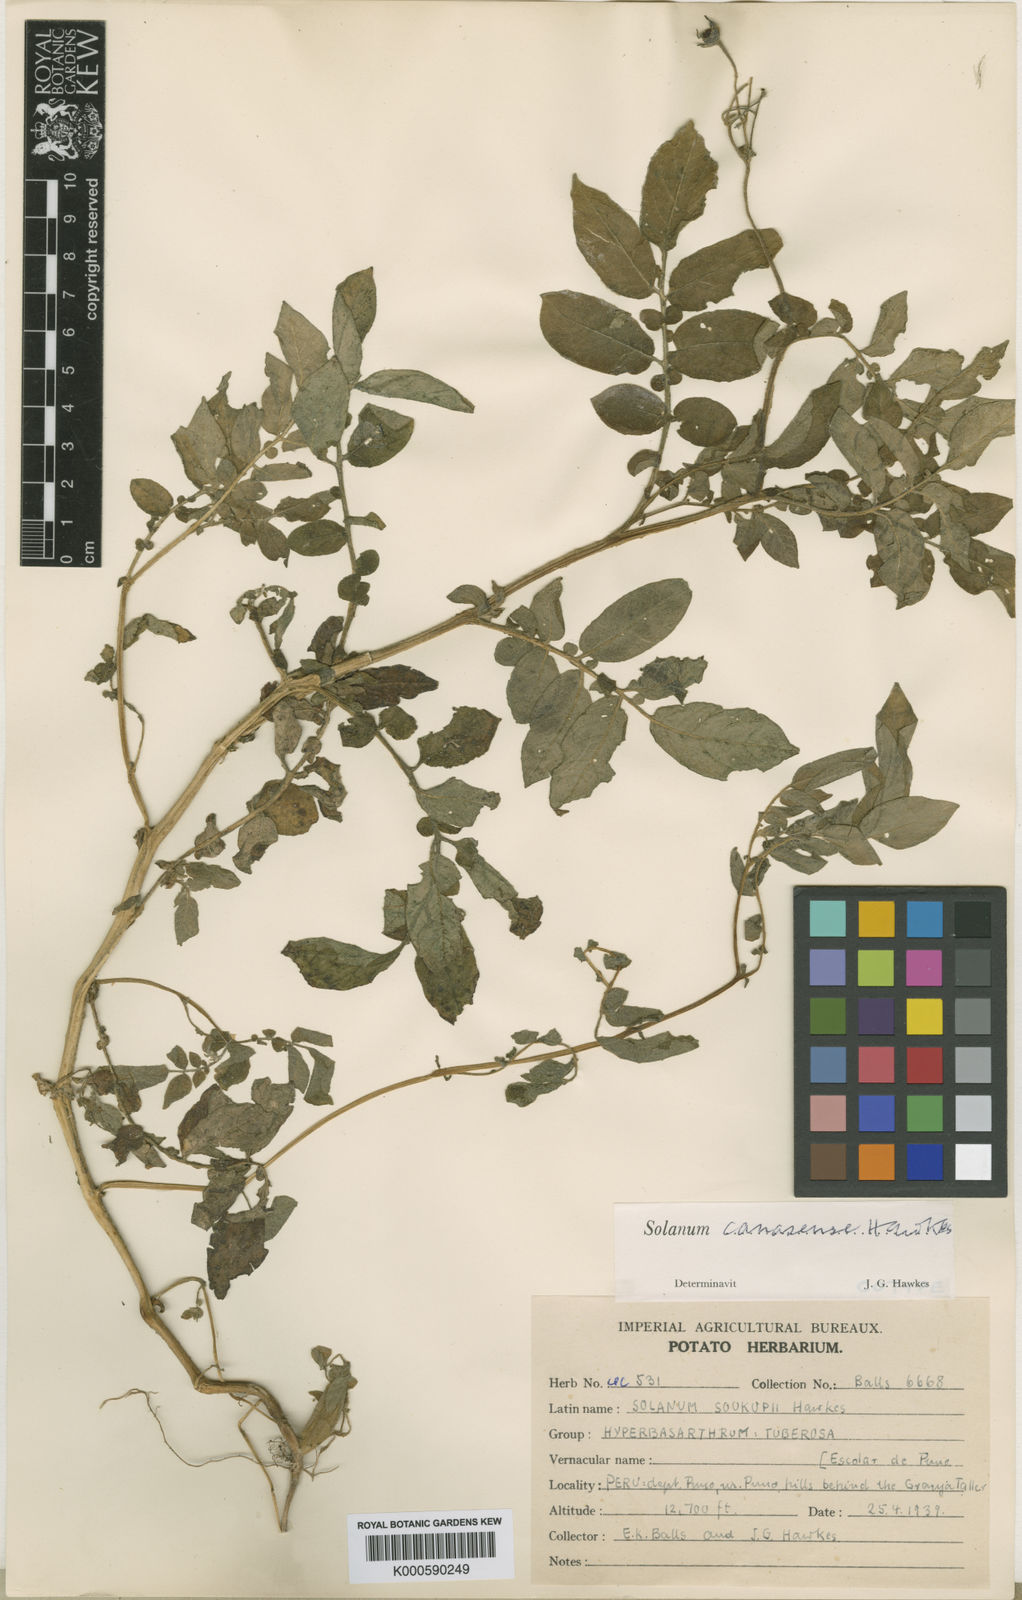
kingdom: Plantae
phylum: Tracheophyta
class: Magnoliopsida
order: Solanales
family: Solanaceae
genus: Solanum
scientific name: Solanum candolleanum
